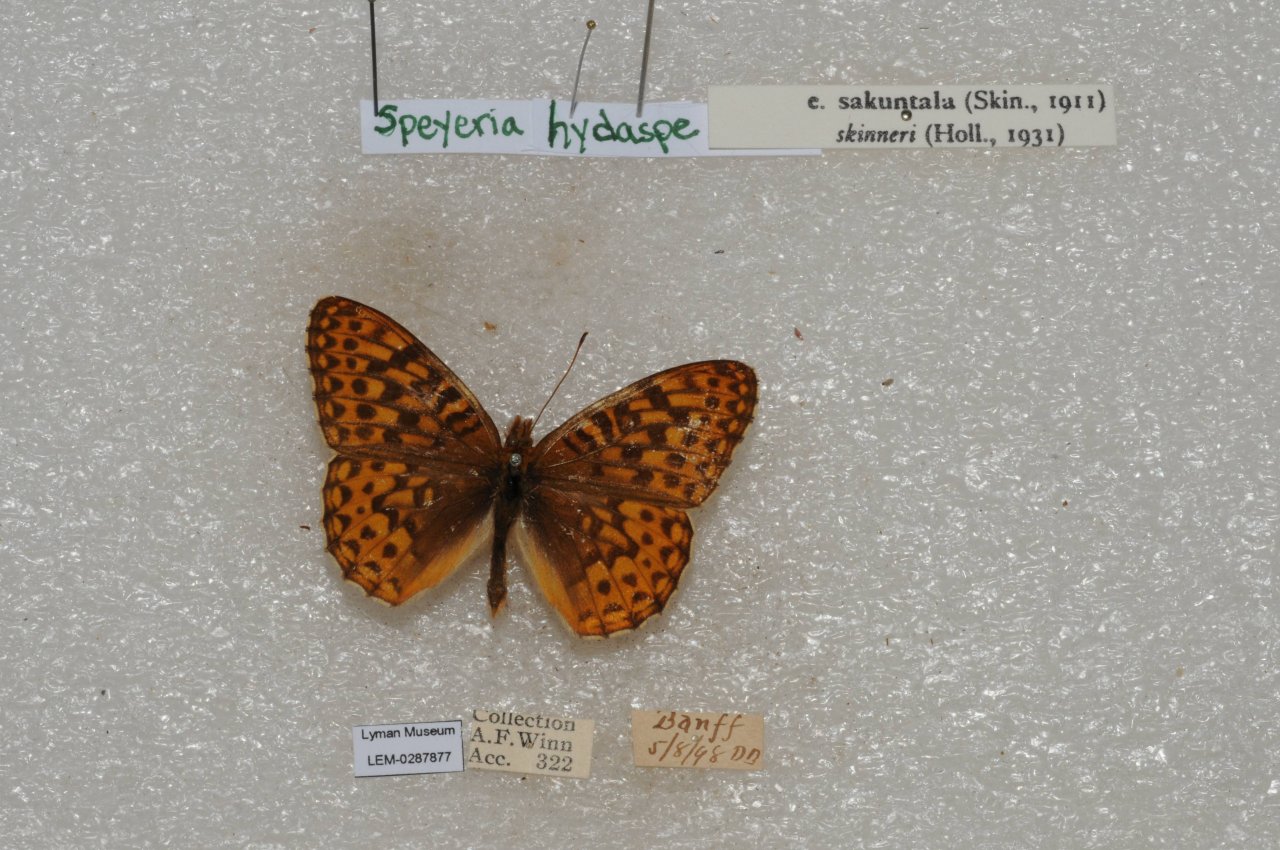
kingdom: Animalia
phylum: Arthropoda
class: Insecta
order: Lepidoptera
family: Nymphalidae
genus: Speyeria
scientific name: Speyeria hydaspe
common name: Hydaspe Fritillary
